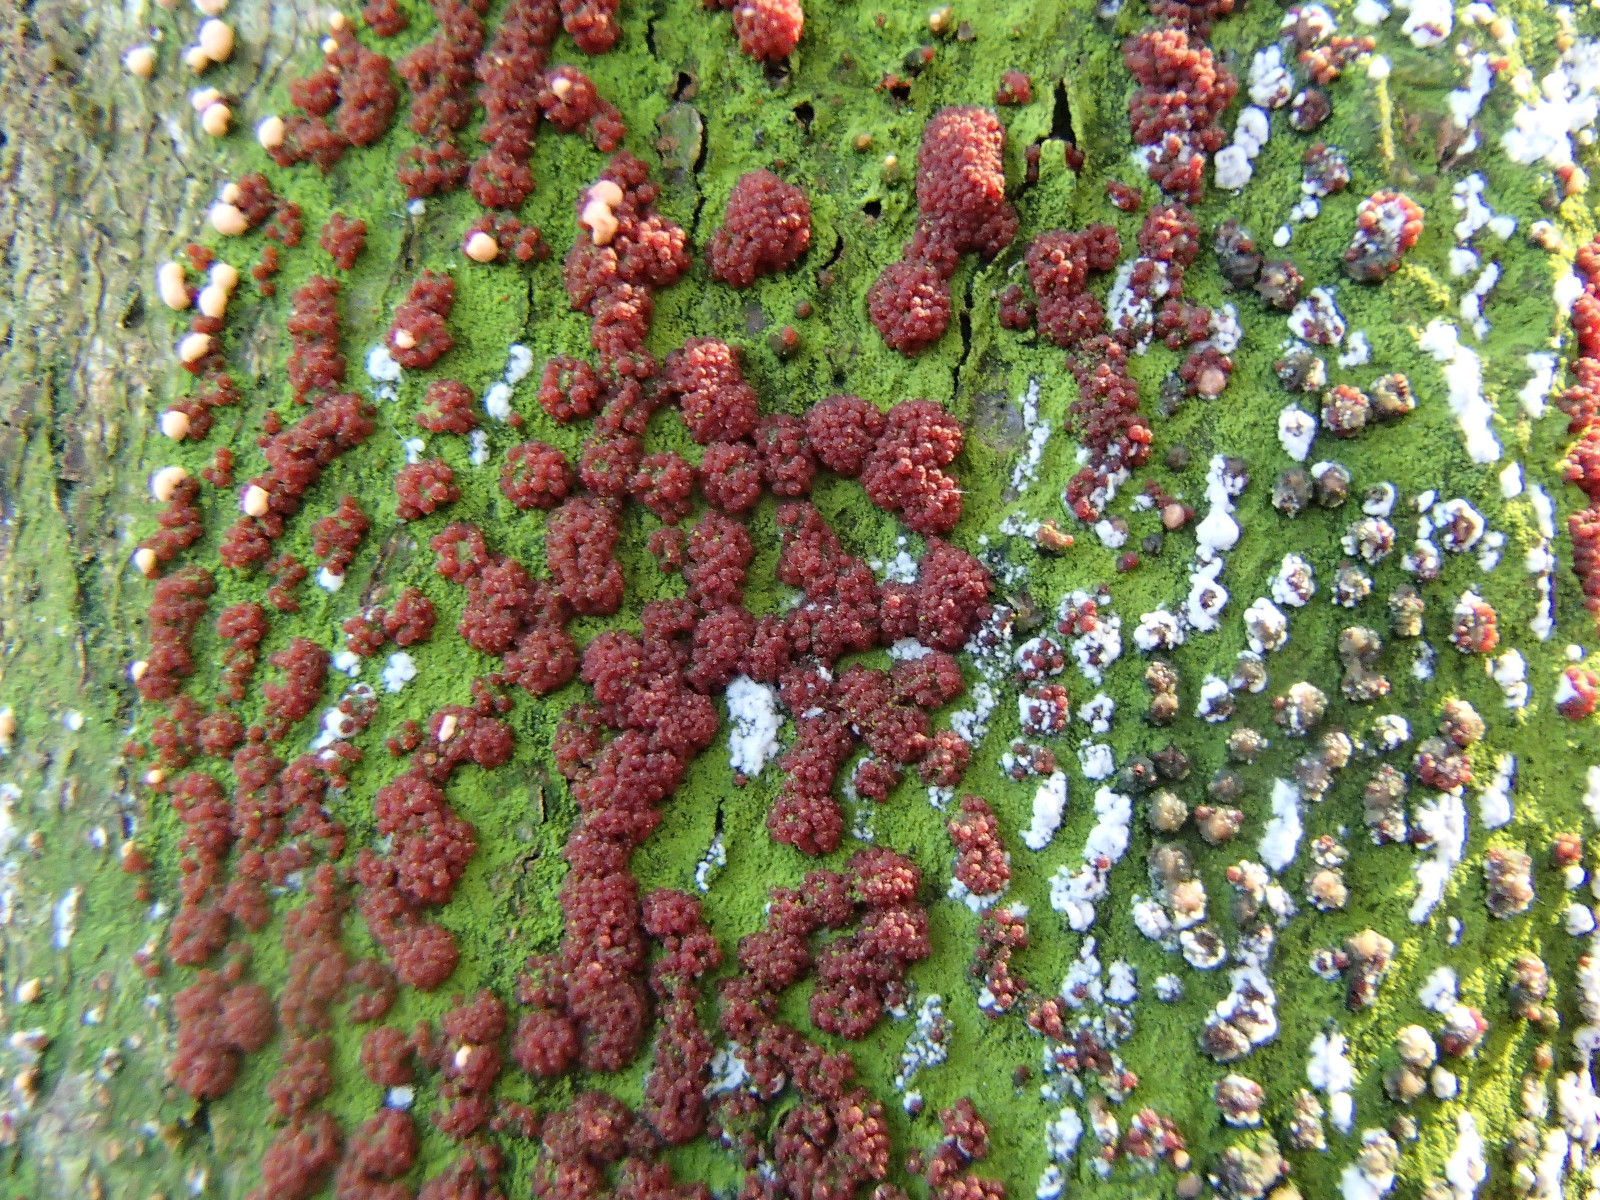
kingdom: Fungi
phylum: Ascomycota
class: Sordariomycetes
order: Hypocreales
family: Nectriaceae
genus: Nectria
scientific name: Nectria cinnabarina
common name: almindelig cinnobersvamp
